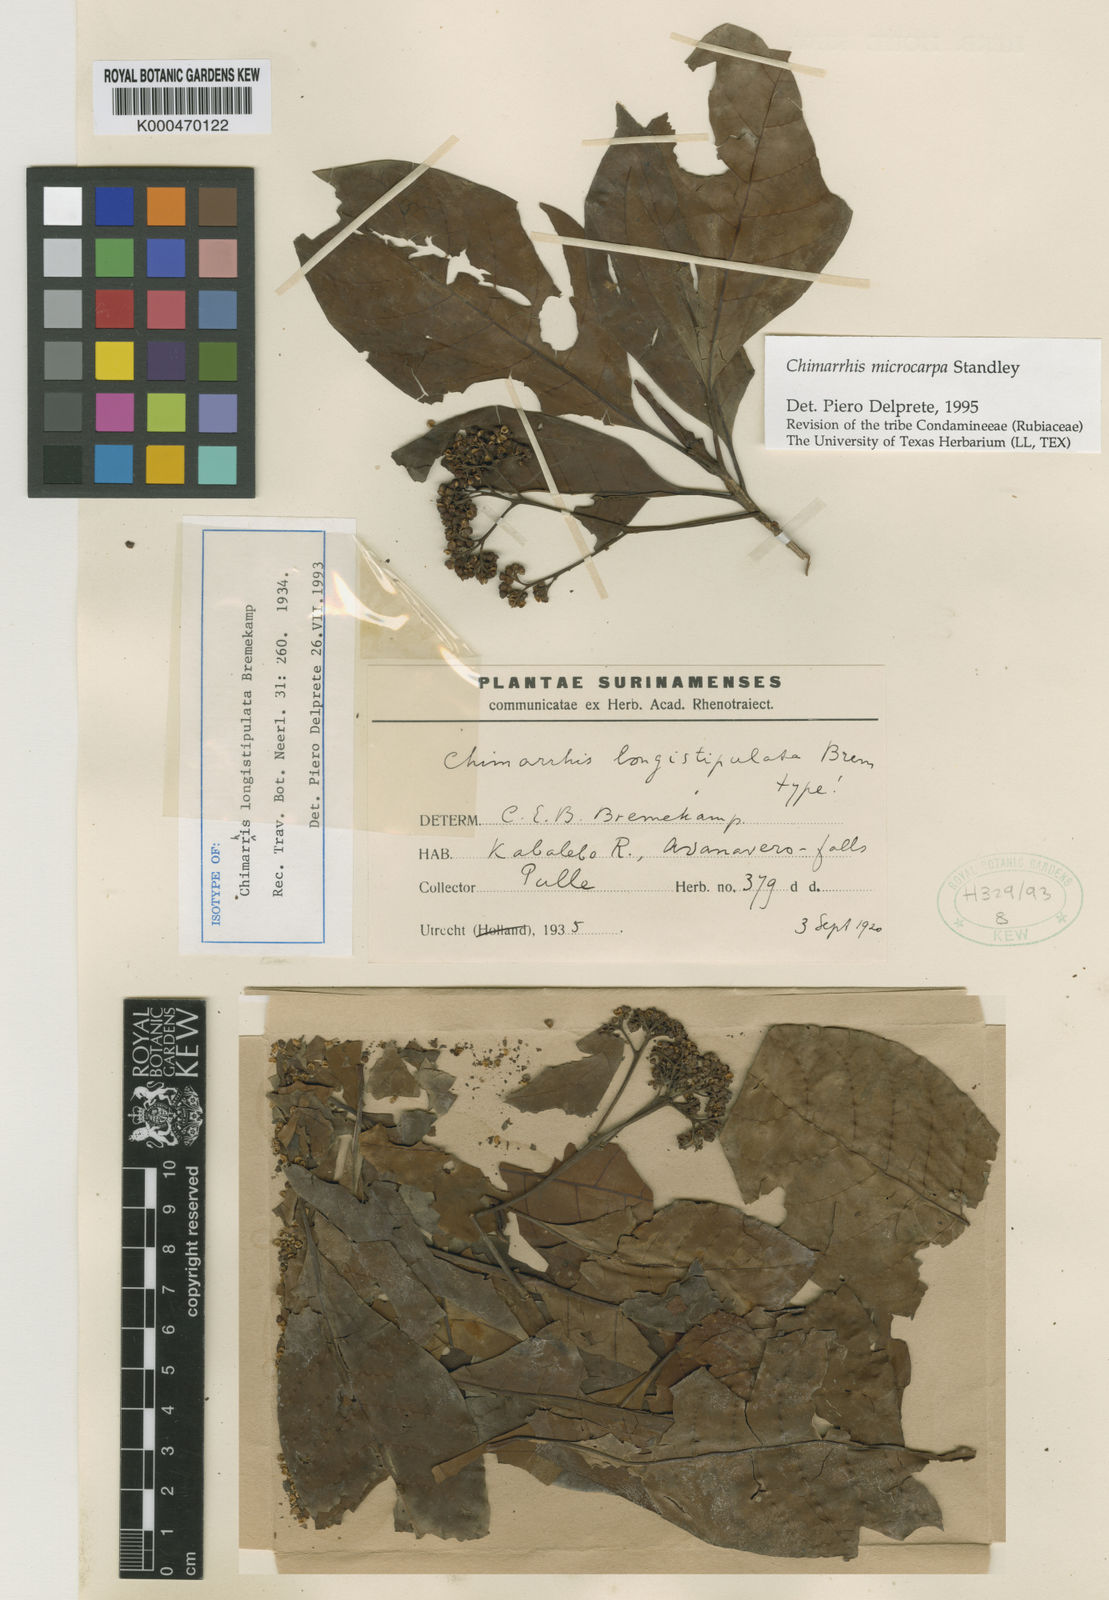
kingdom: Plantae
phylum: Tracheophyta
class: Magnoliopsida
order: Gentianales
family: Rubiaceae
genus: Chimarrhis
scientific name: Chimarrhis microcarpa
